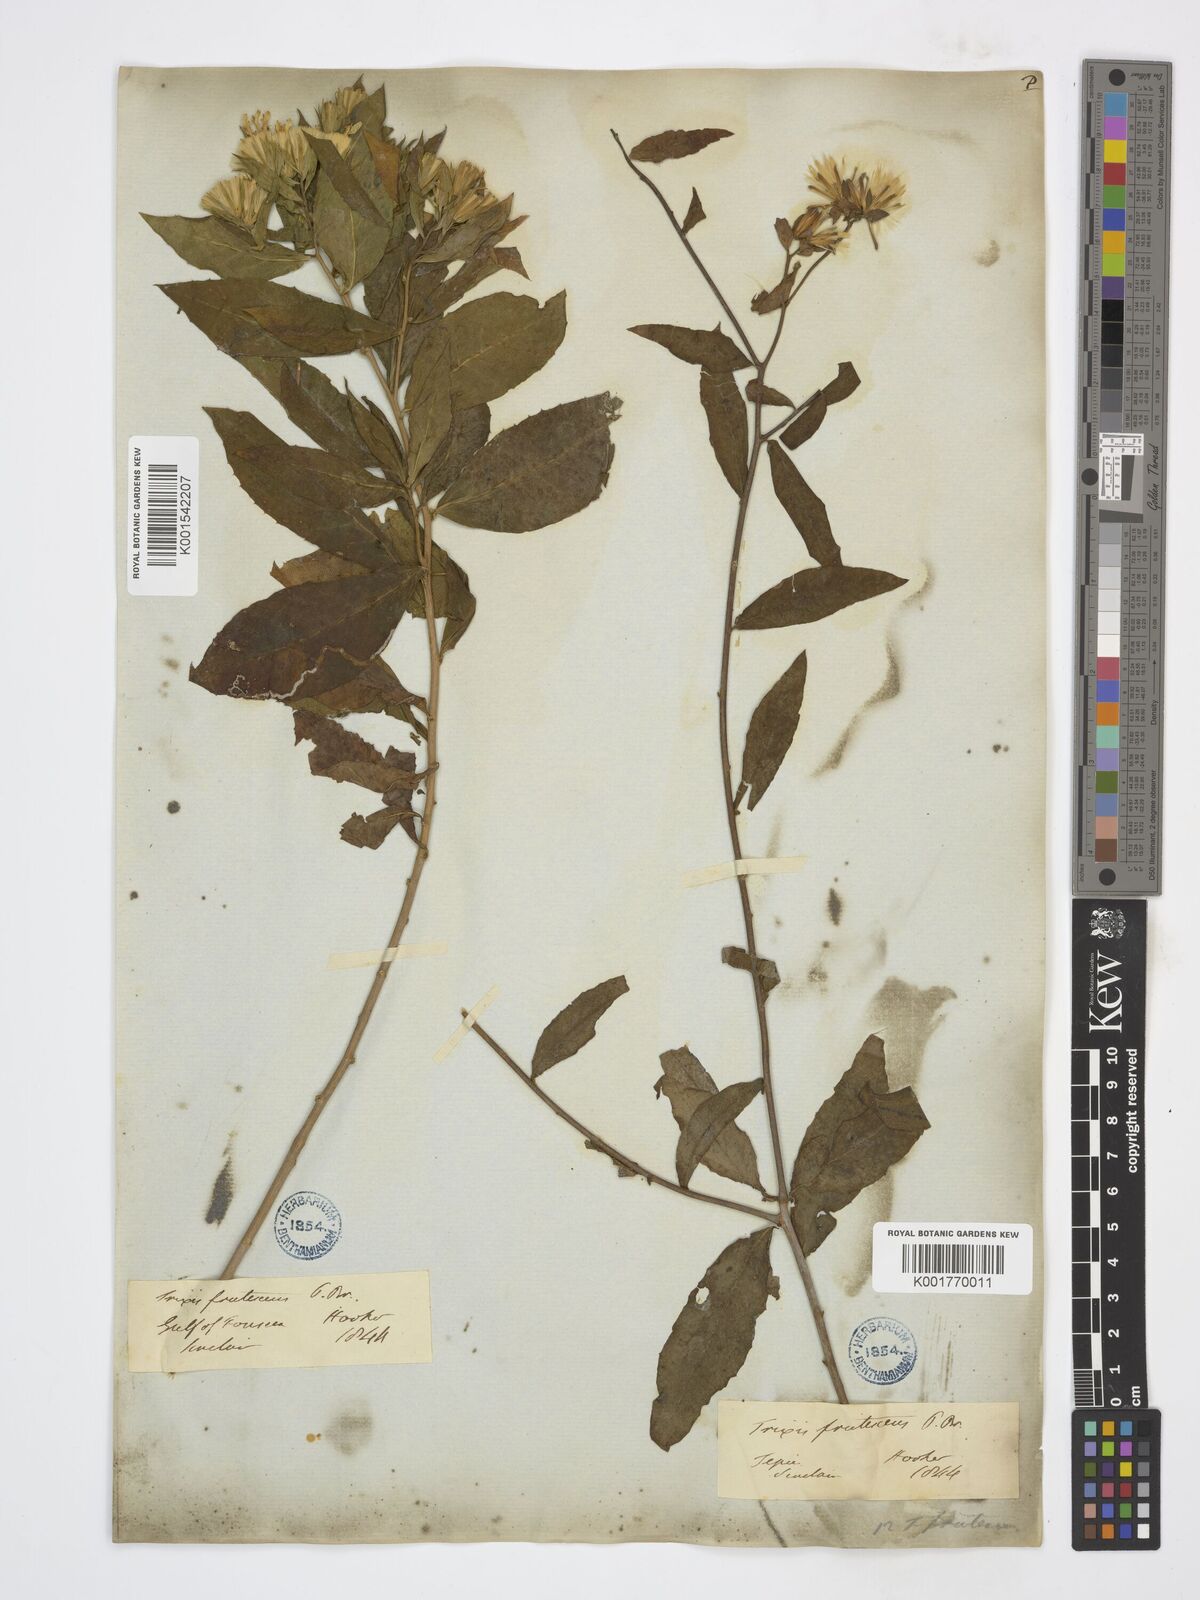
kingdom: Plantae
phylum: Tracheophyta
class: Magnoliopsida
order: Asterales
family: Asteraceae
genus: Trixis
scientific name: Trixis inula
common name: Tropical threefold
